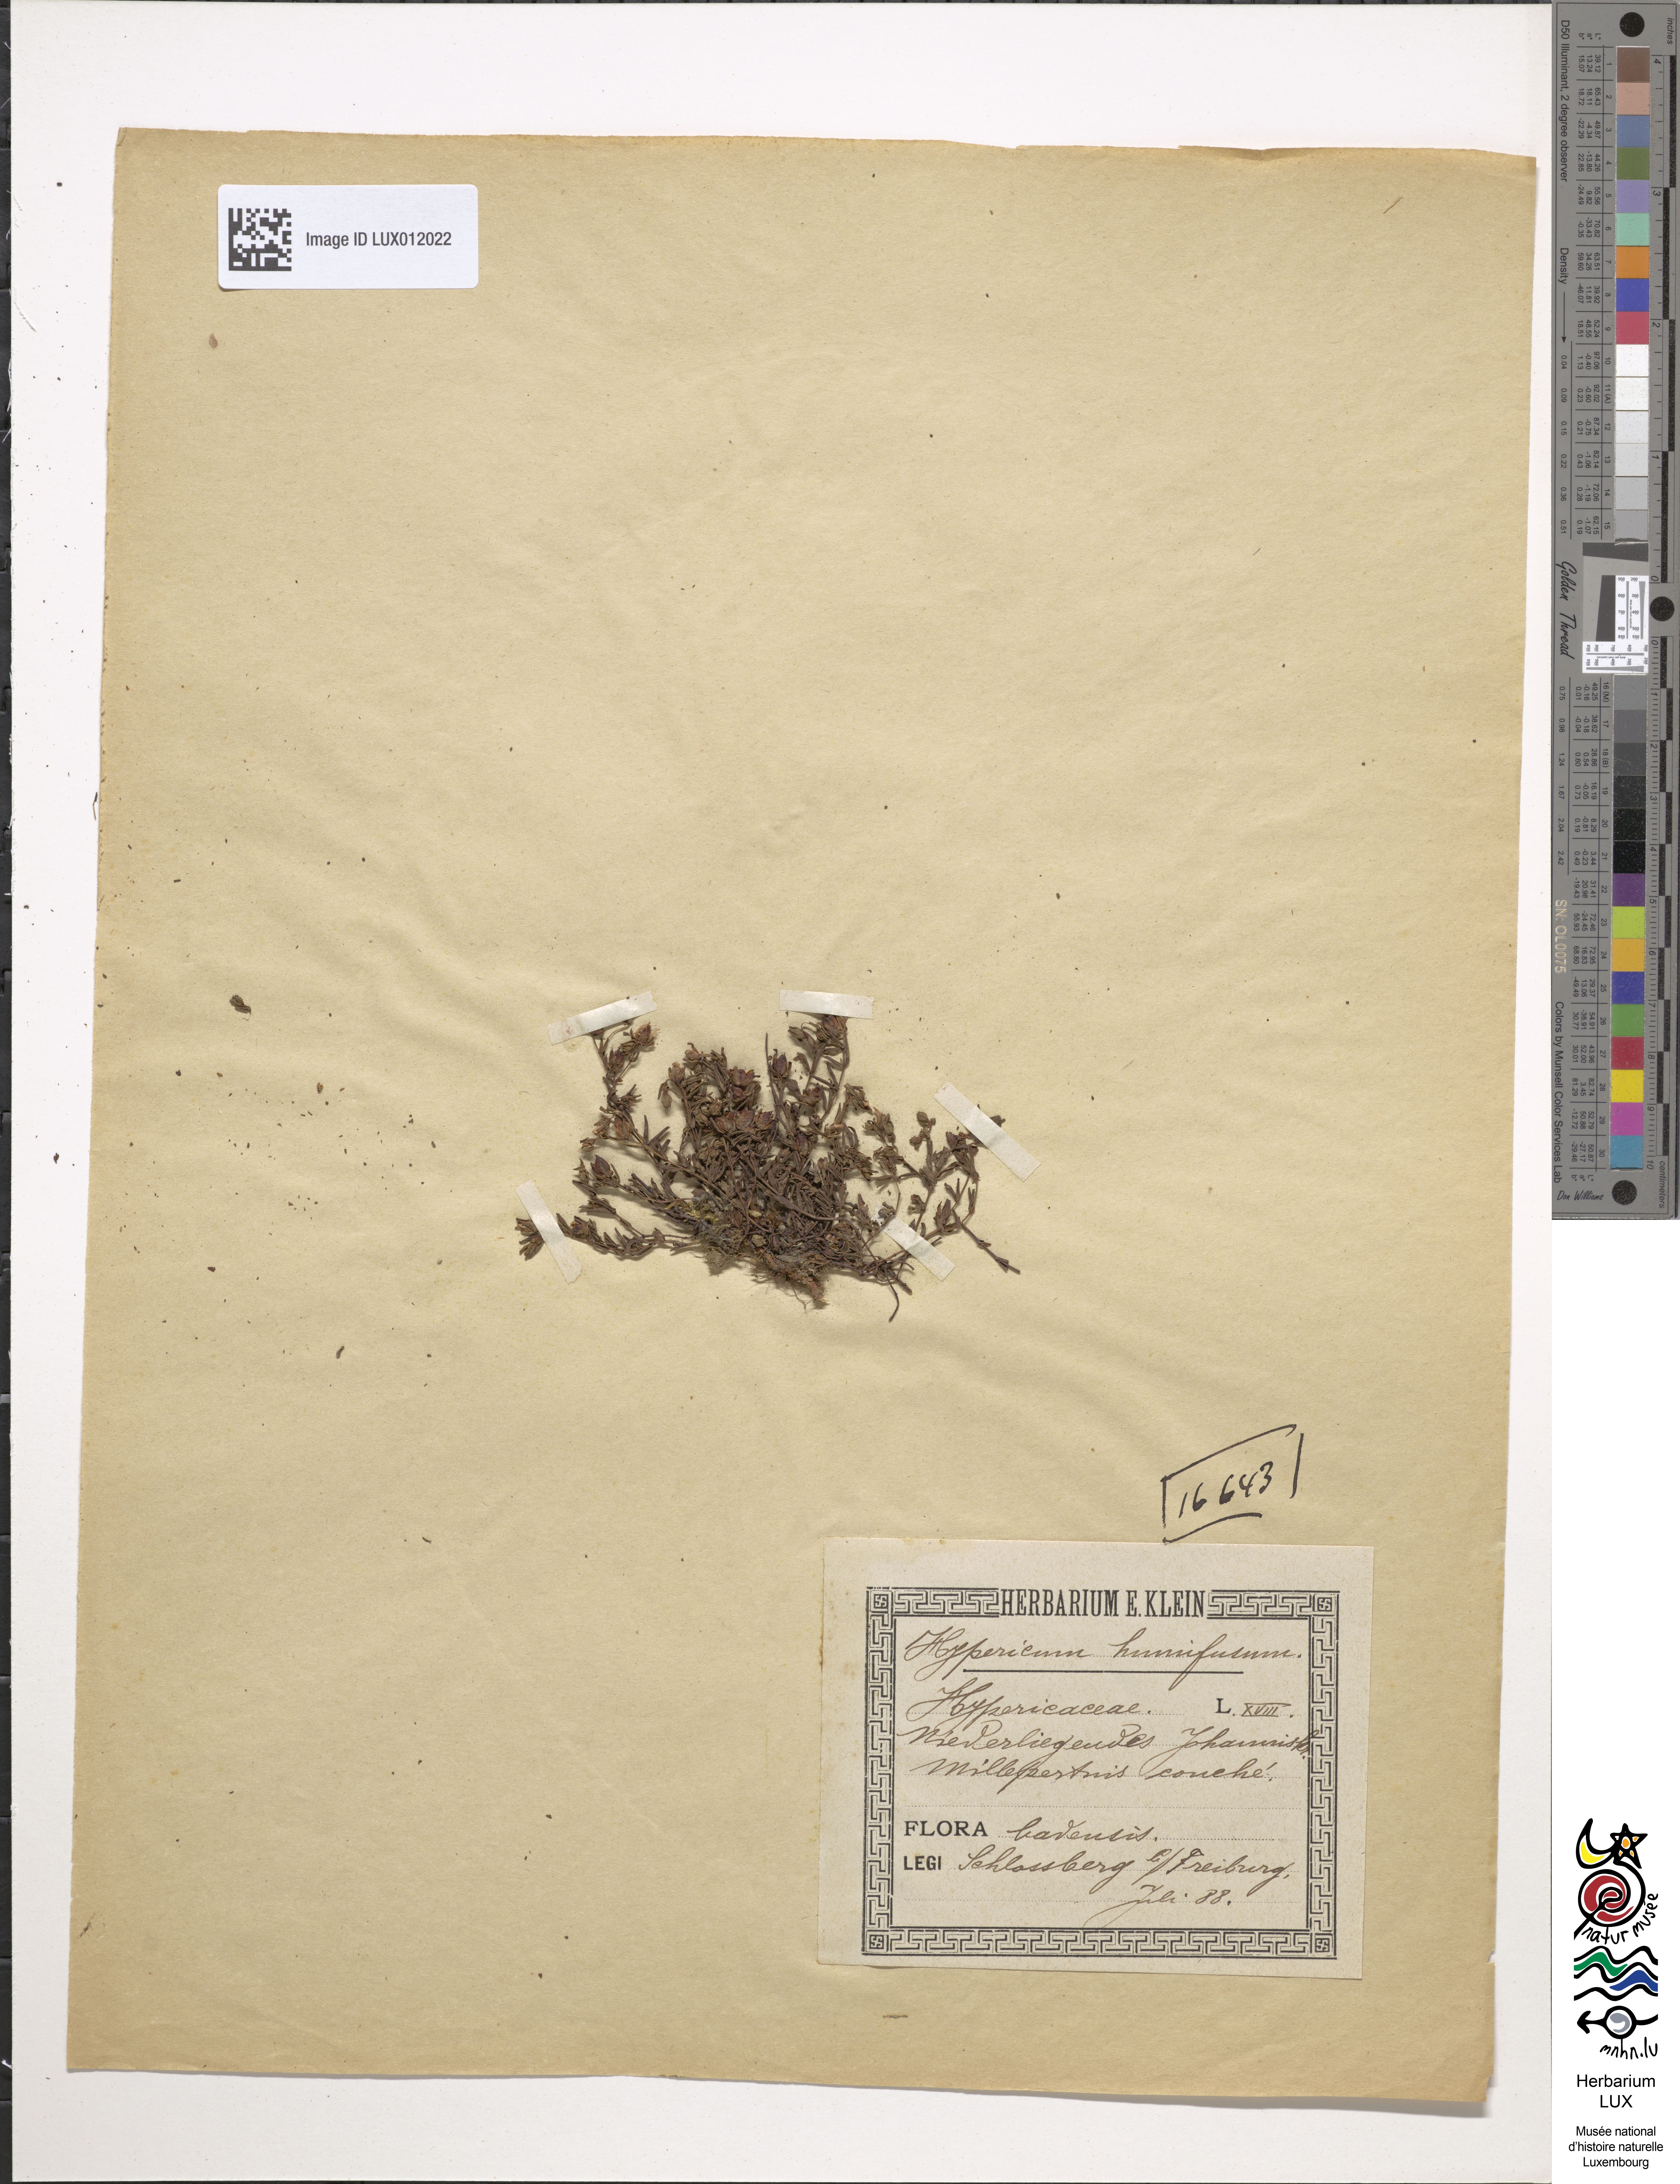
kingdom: Plantae
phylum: Tracheophyta
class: Magnoliopsida
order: Malpighiales
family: Hypericaceae
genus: Hypericum
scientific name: Hypericum humifusum
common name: Trailing st. john's-wort
